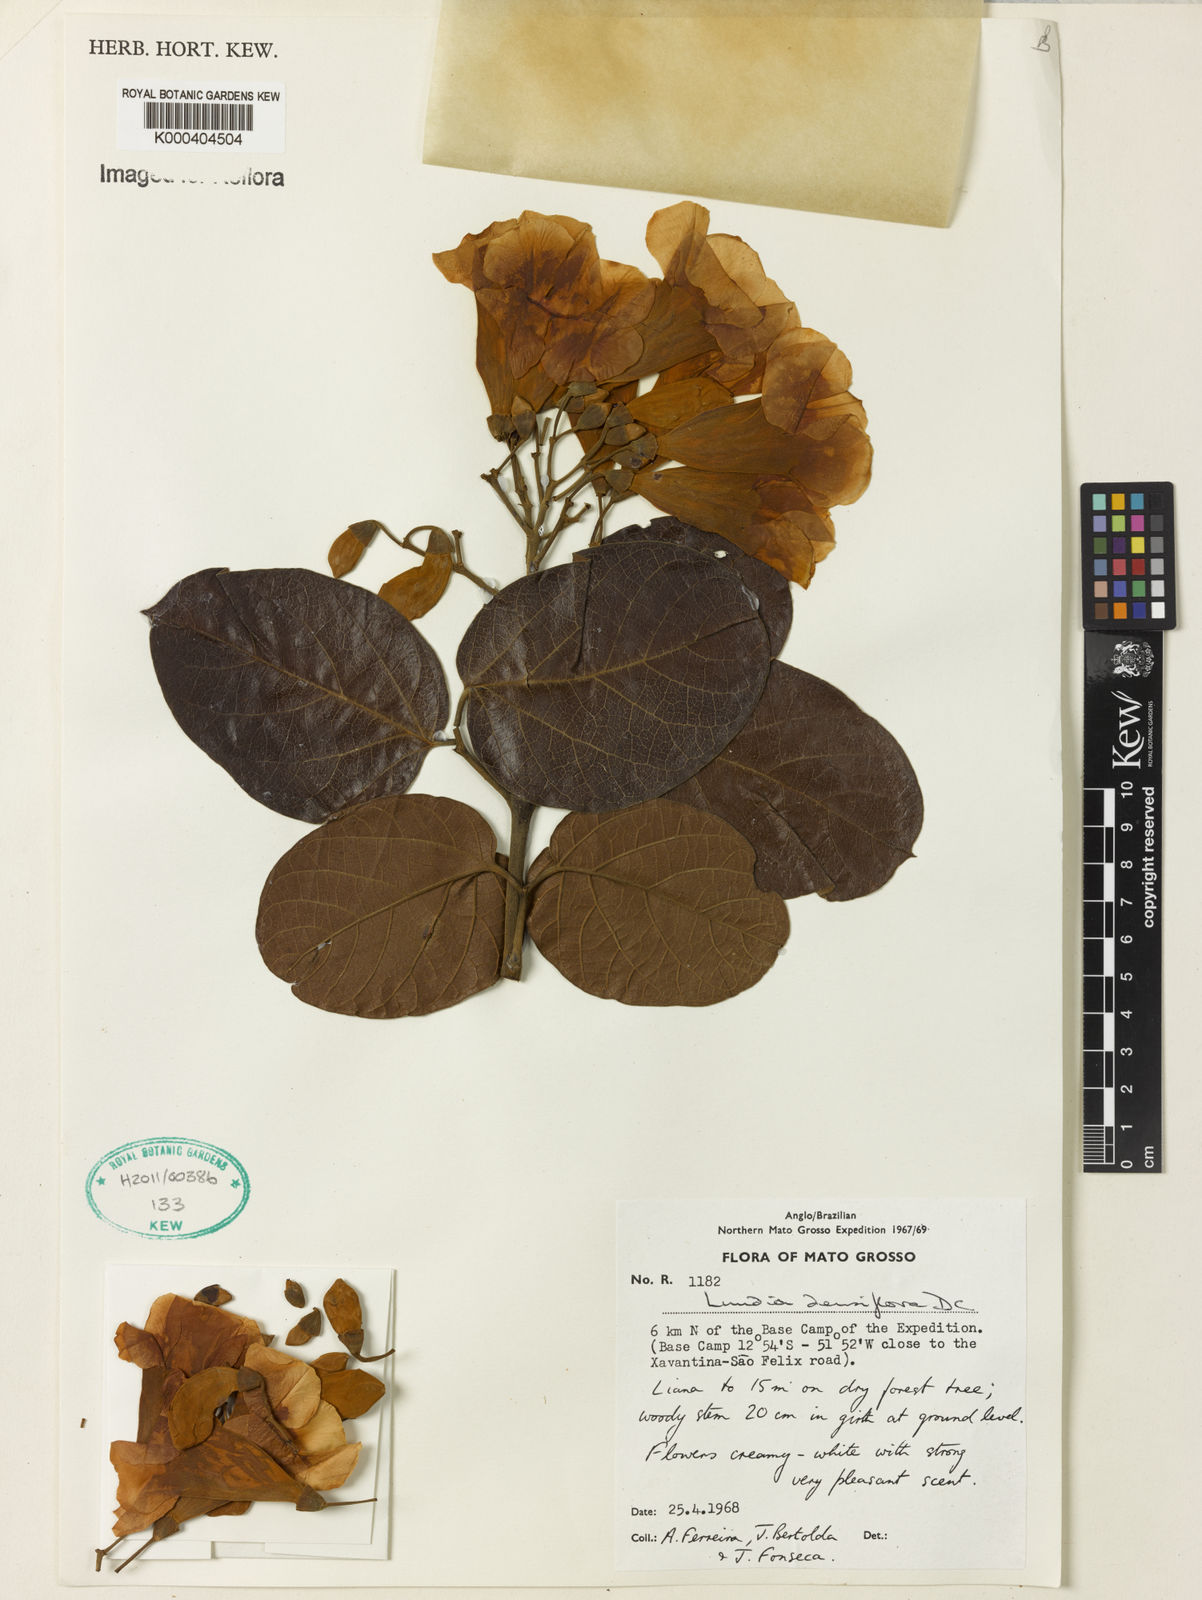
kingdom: Plantae
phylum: Tracheophyta
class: Magnoliopsida
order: Lamiales
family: Bignoniaceae
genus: Lundia
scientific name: Lundia densiflora
